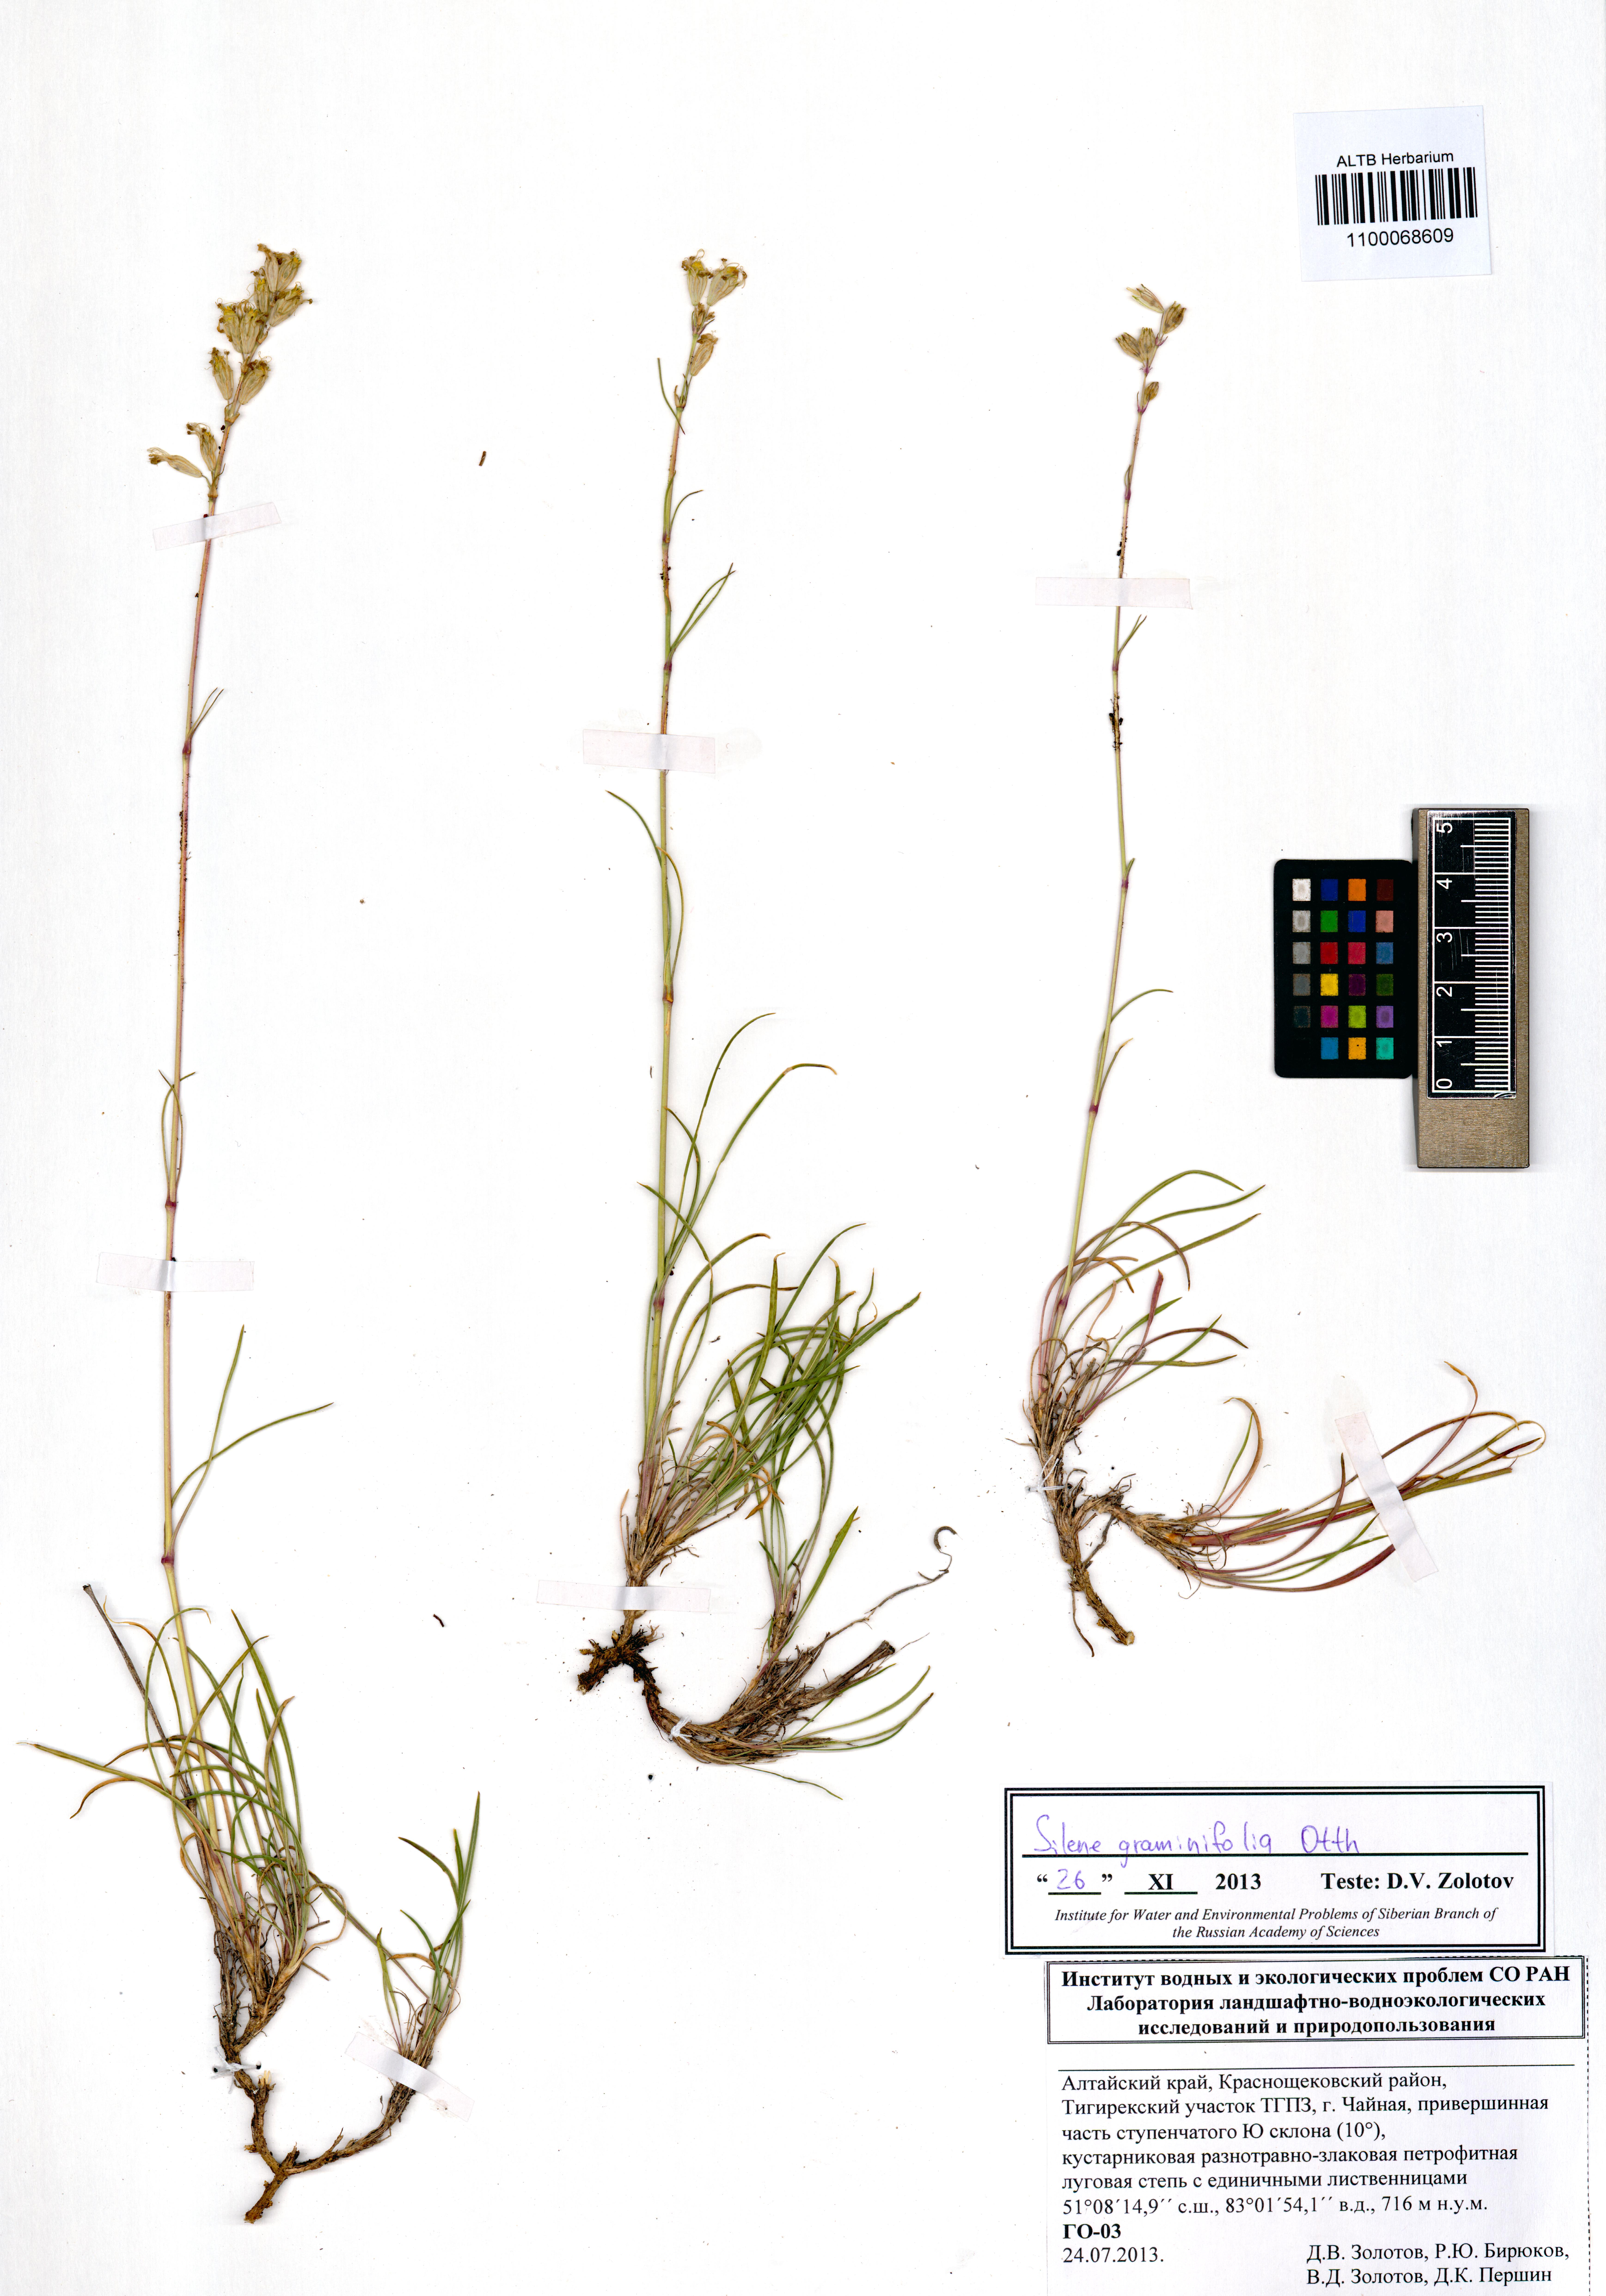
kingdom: Plantae
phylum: Tracheophyta
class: Magnoliopsida
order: Caryophyllales
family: Caryophyllaceae
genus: Silene
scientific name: Silene graminifolia
